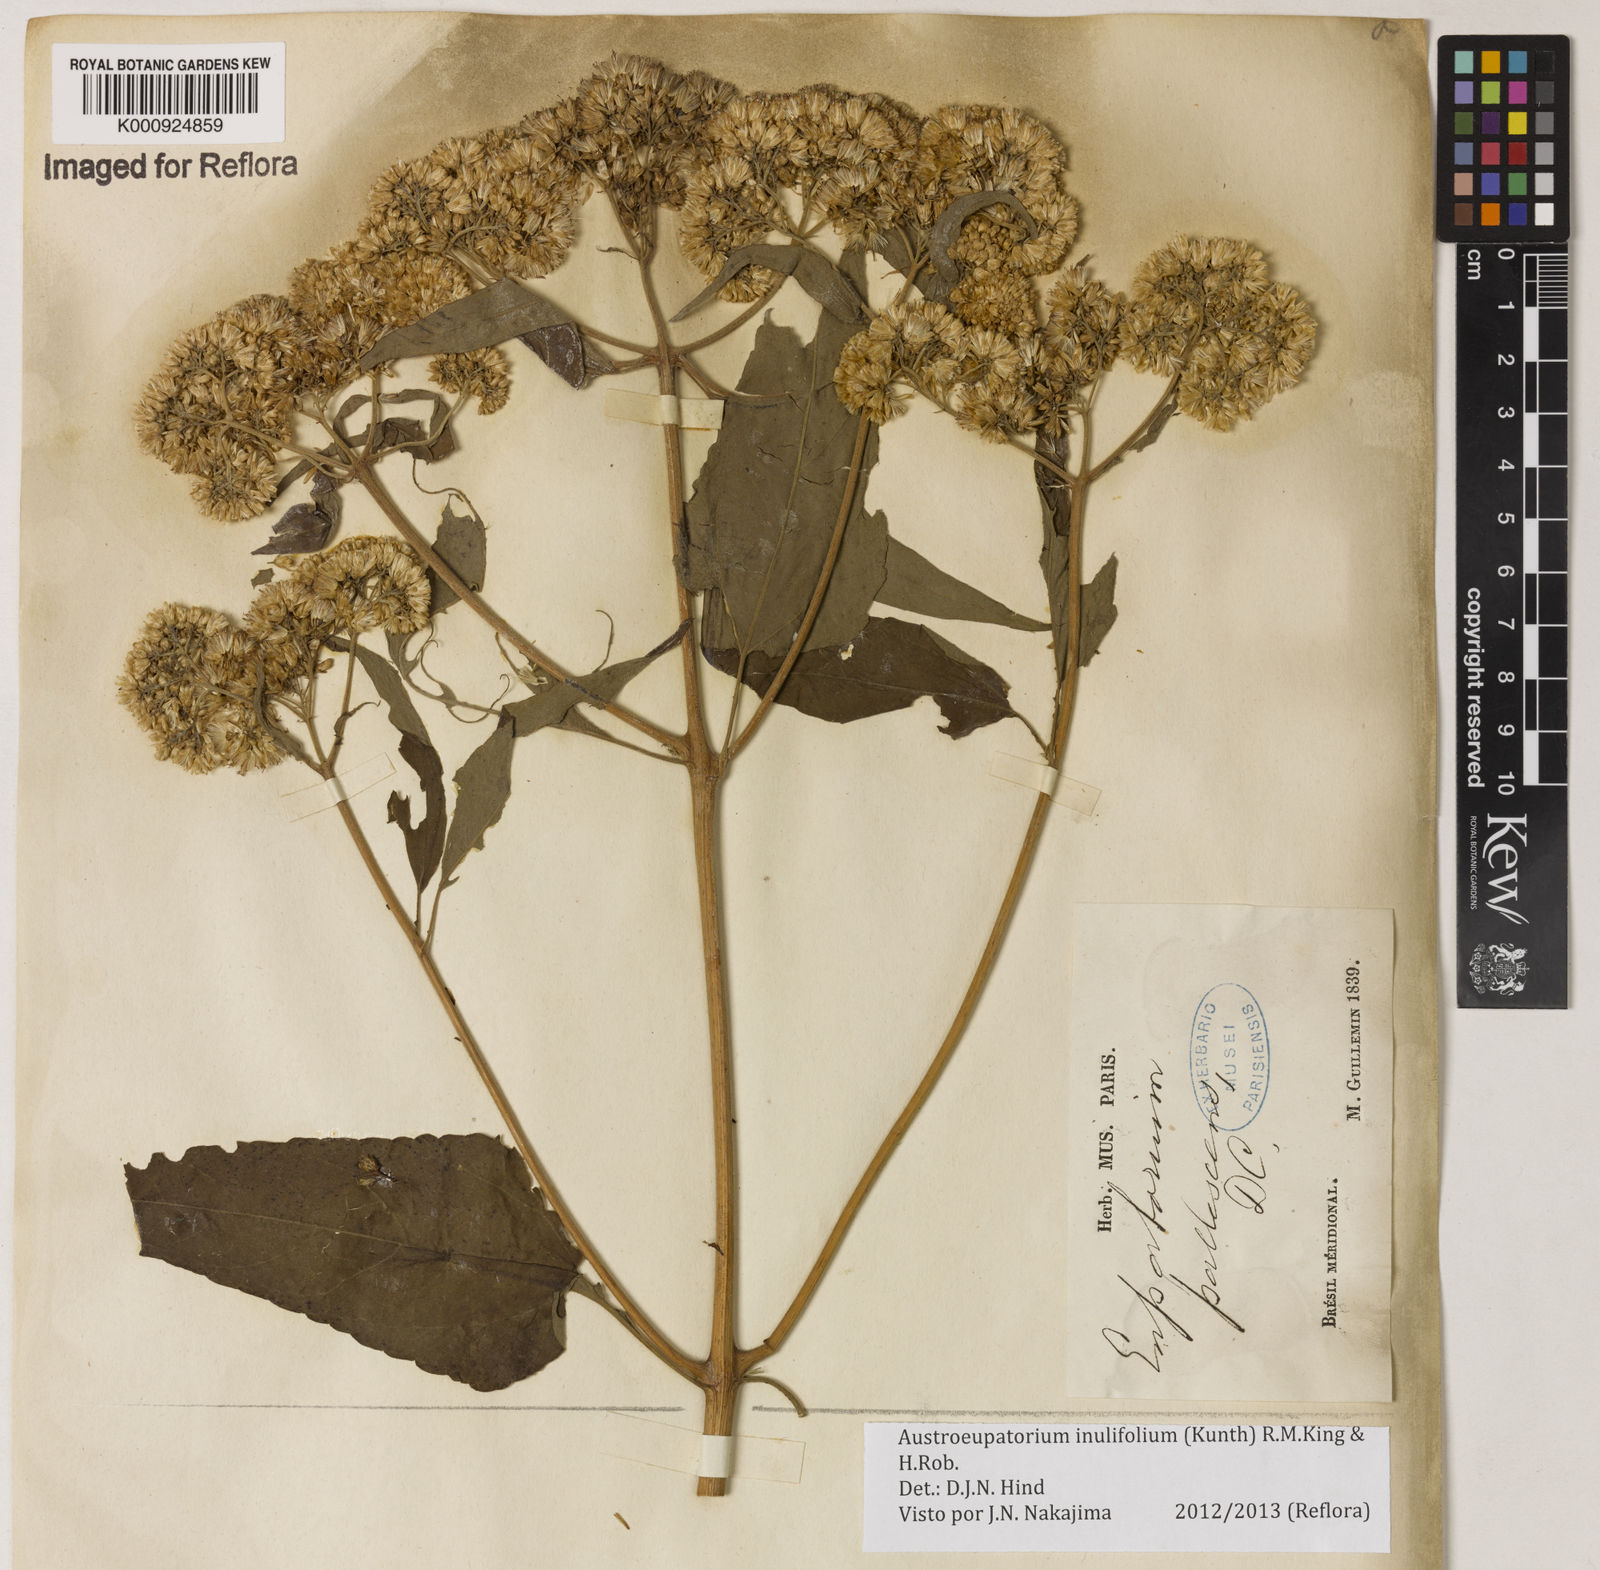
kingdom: Plantae
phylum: Tracheophyta
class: Magnoliopsida
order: Asterales
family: Asteraceae
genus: Austroeupatorium
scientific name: Austroeupatorium
